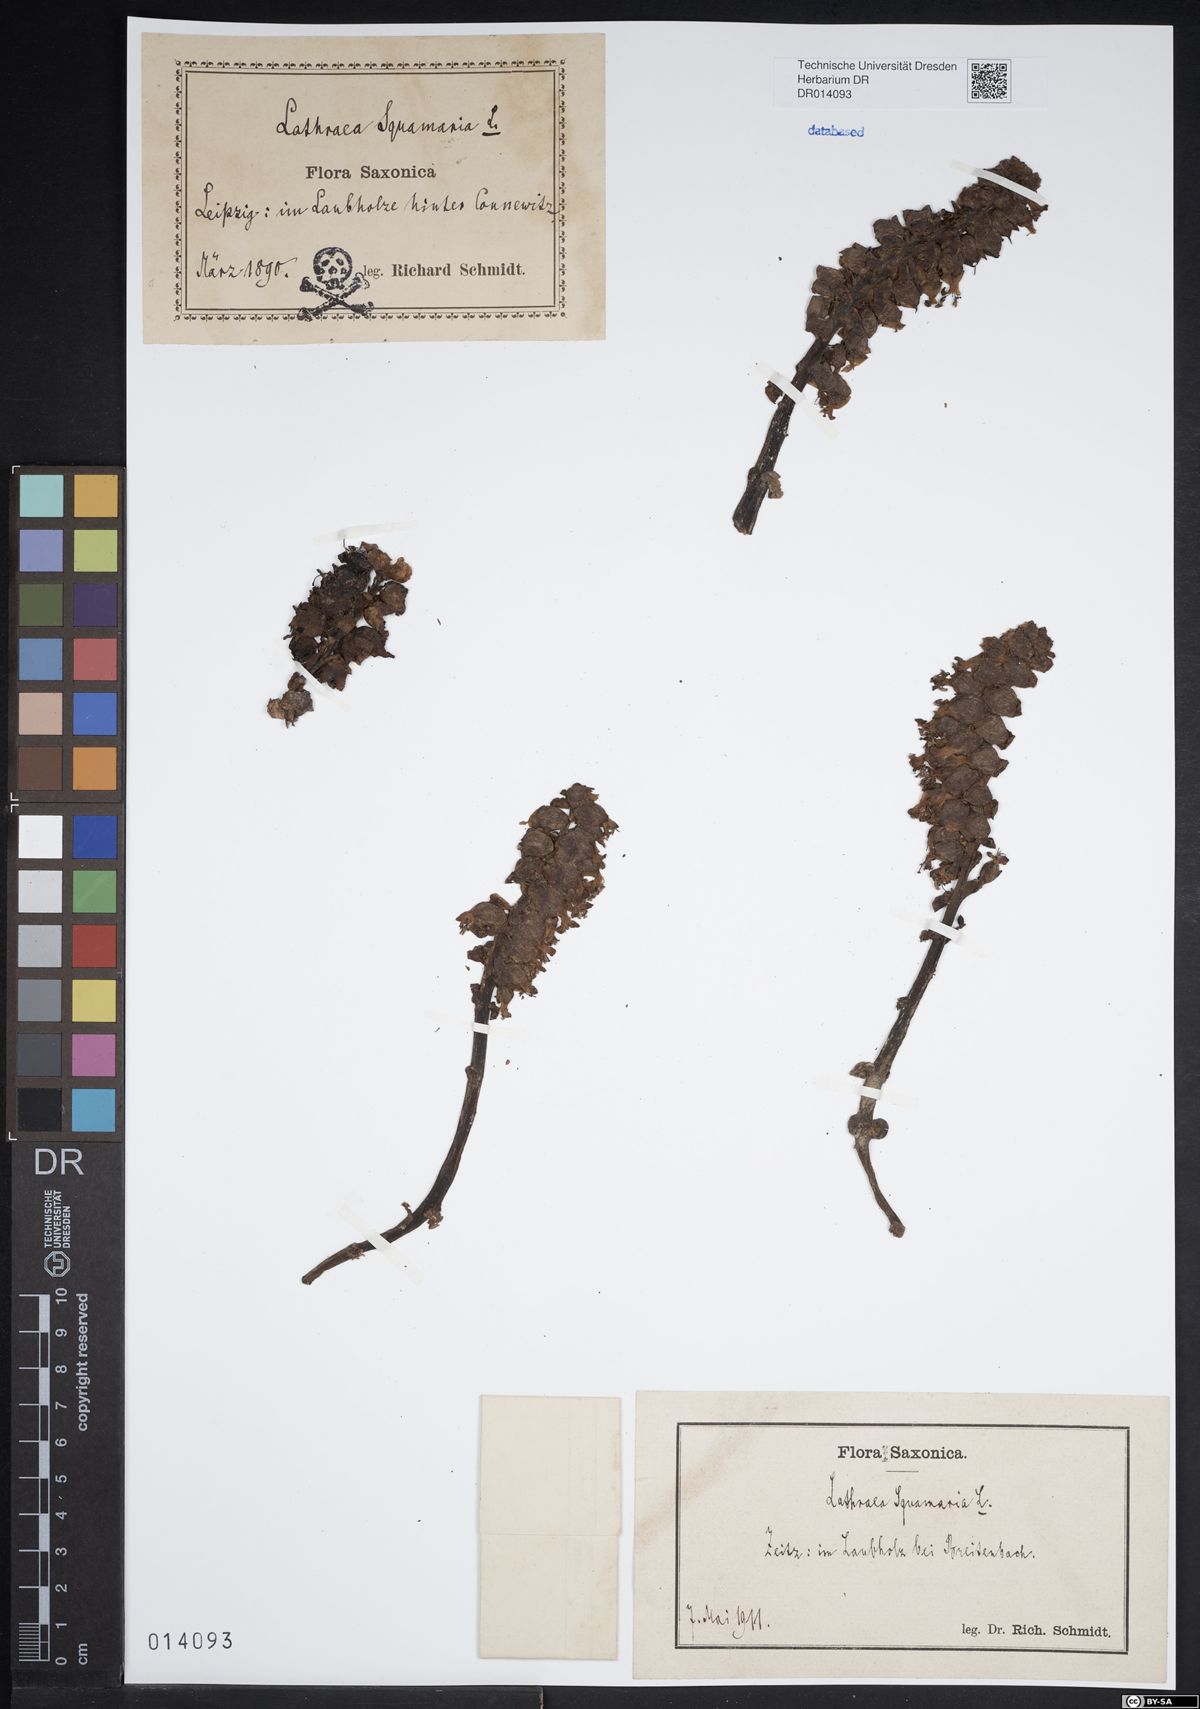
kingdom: Plantae
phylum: Tracheophyta
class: Magnoliopsida
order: Lamiales
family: Orobanchaceae
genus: Lathraea
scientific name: Lathraea squamaria
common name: Toothwort
